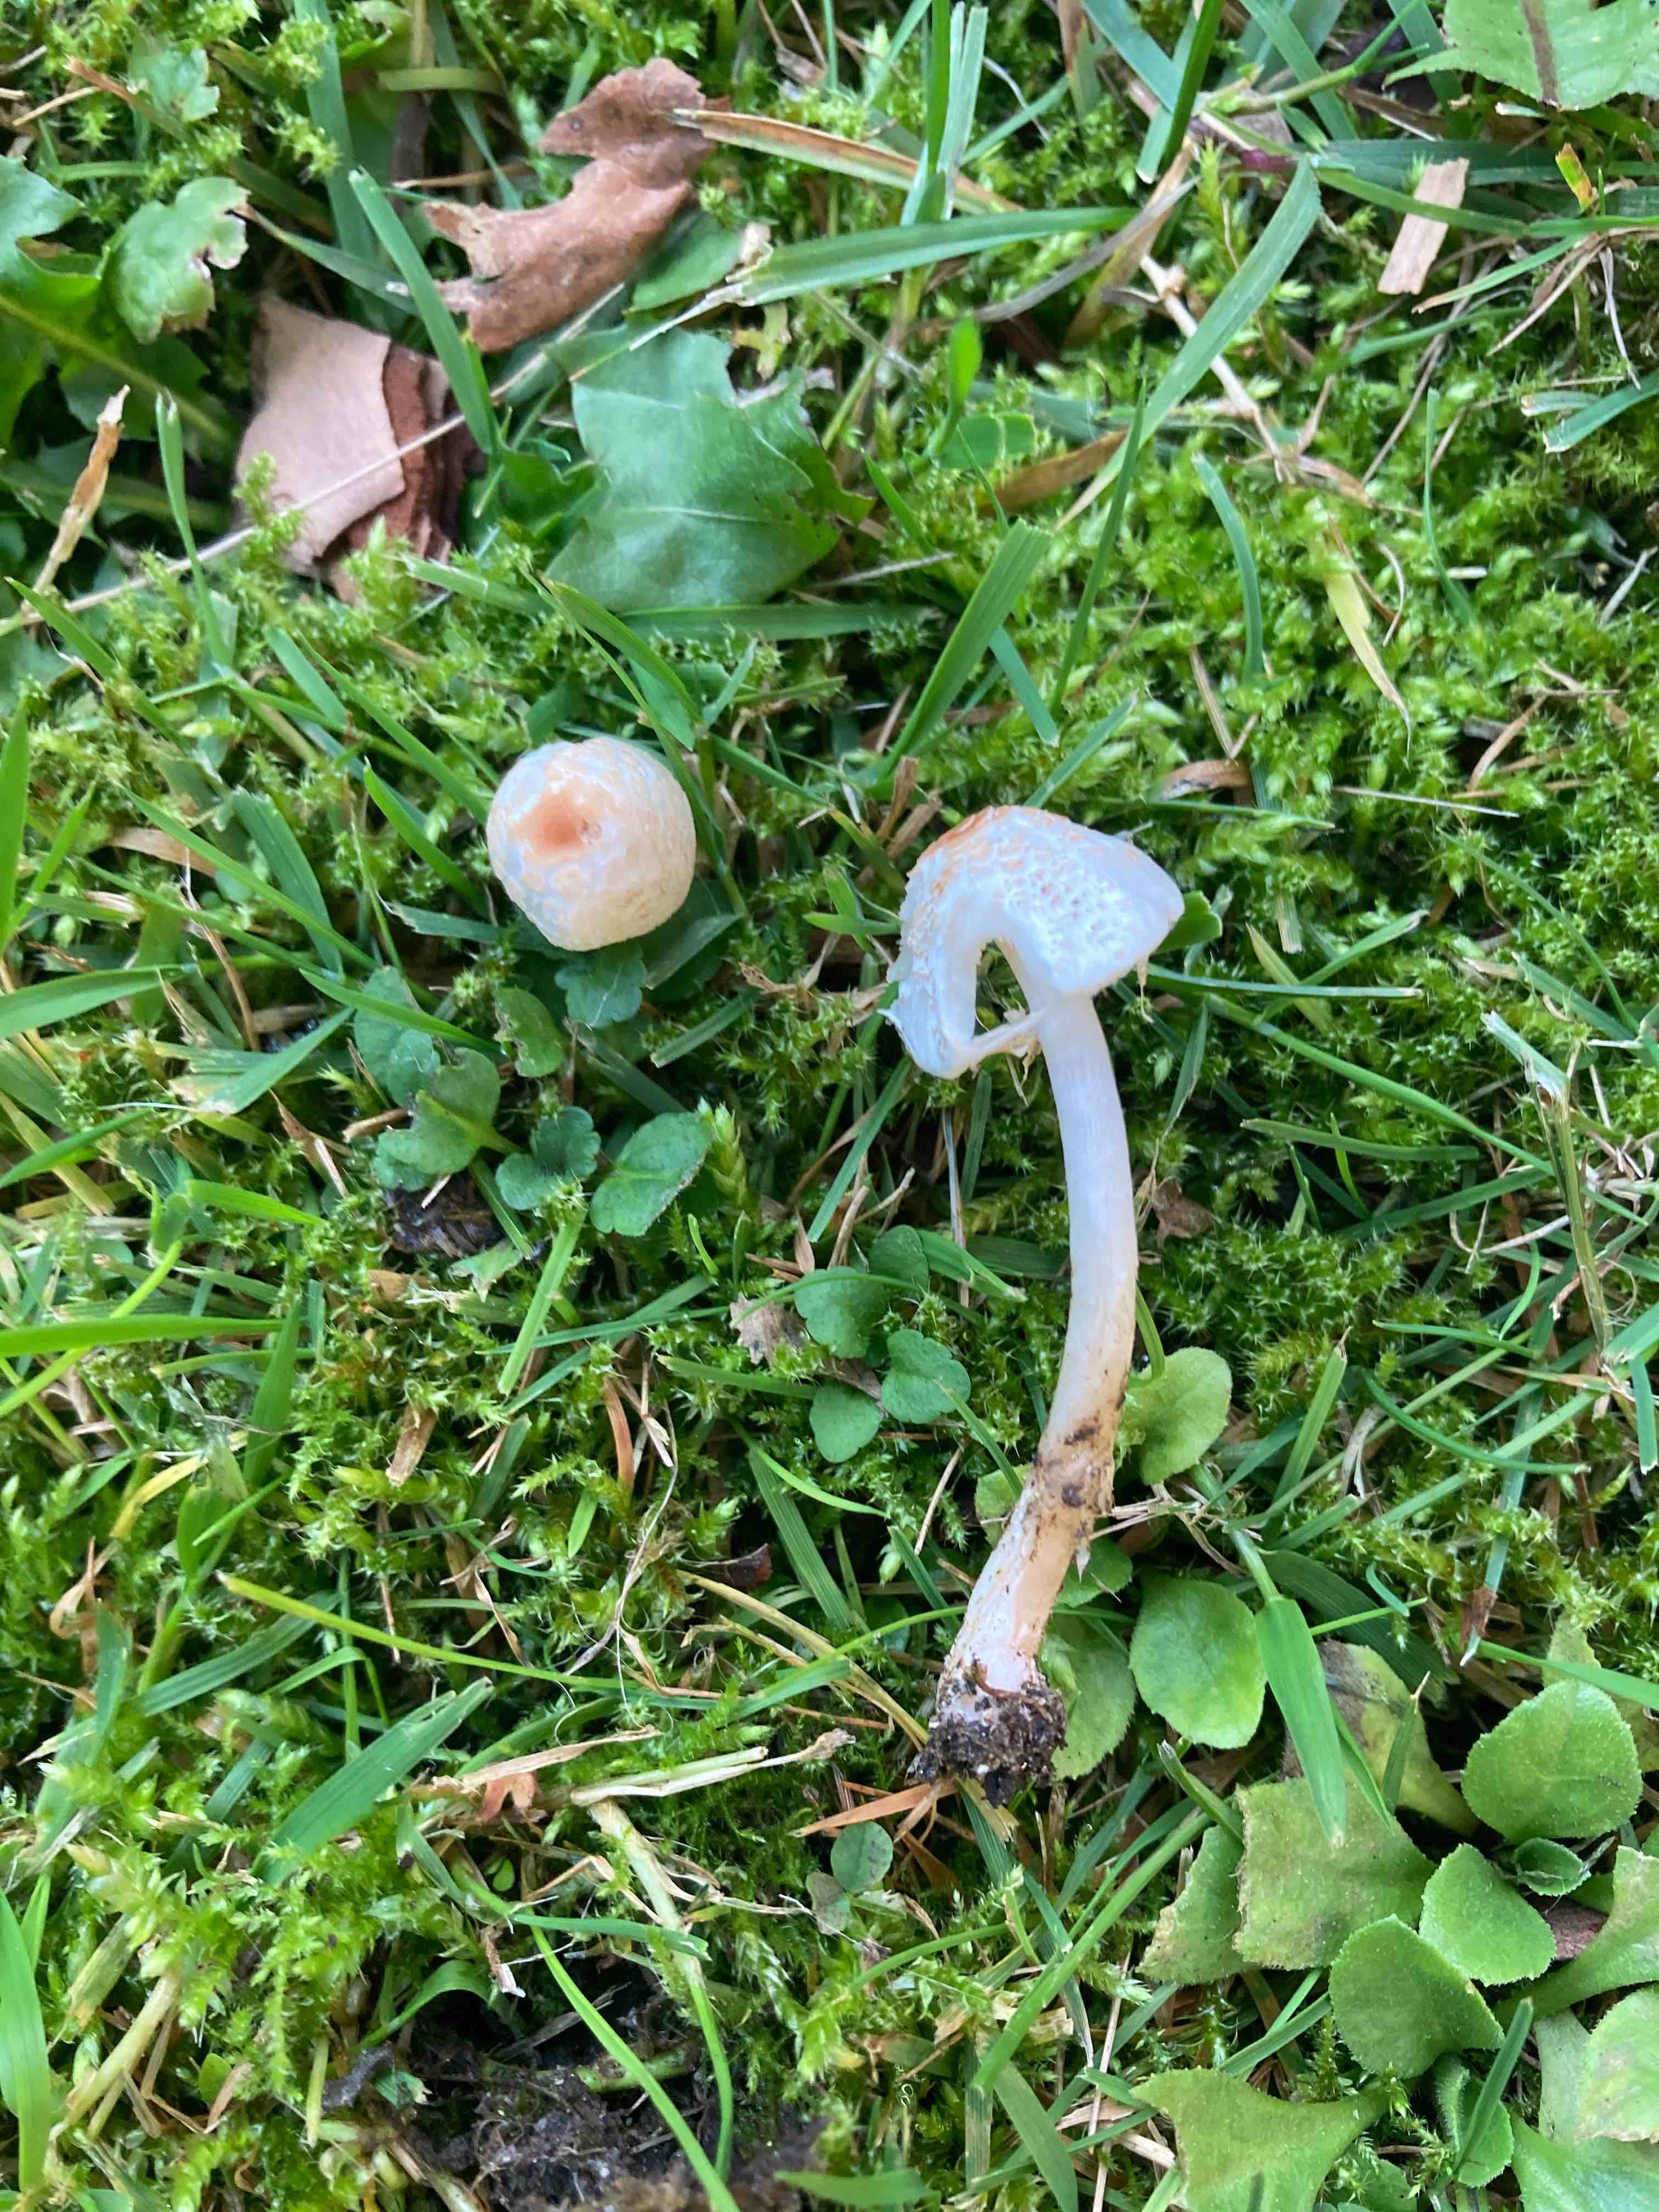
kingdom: Fungi
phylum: Basidiomycota
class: Agaricomycetes
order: Agaricales
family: Agaricaceae
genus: Lepiota
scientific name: Lepiota cristata
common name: stinkende parasolhat
